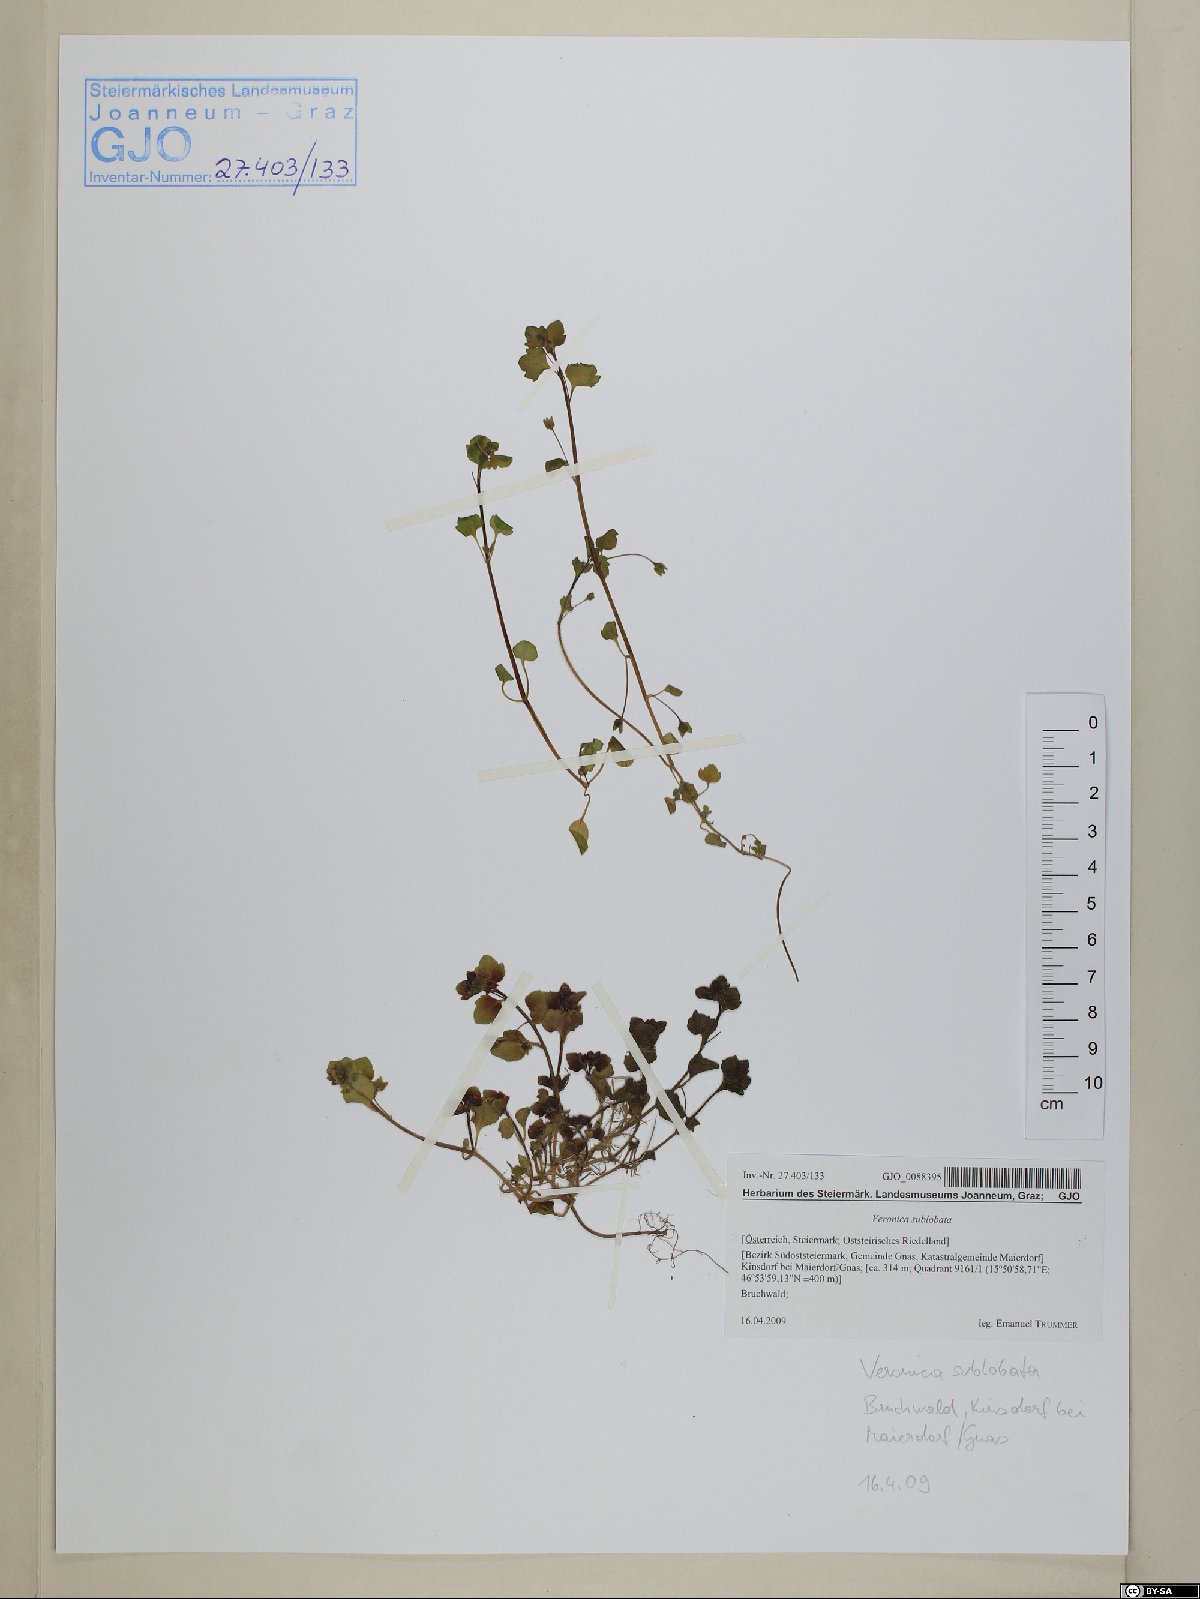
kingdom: Plantae
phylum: Tracheophyta
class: Magnoliopsida
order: Lamiales
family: Plantaginaceae
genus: Veronica
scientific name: Veronica sublobata
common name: False ivy-leaved speedwell
